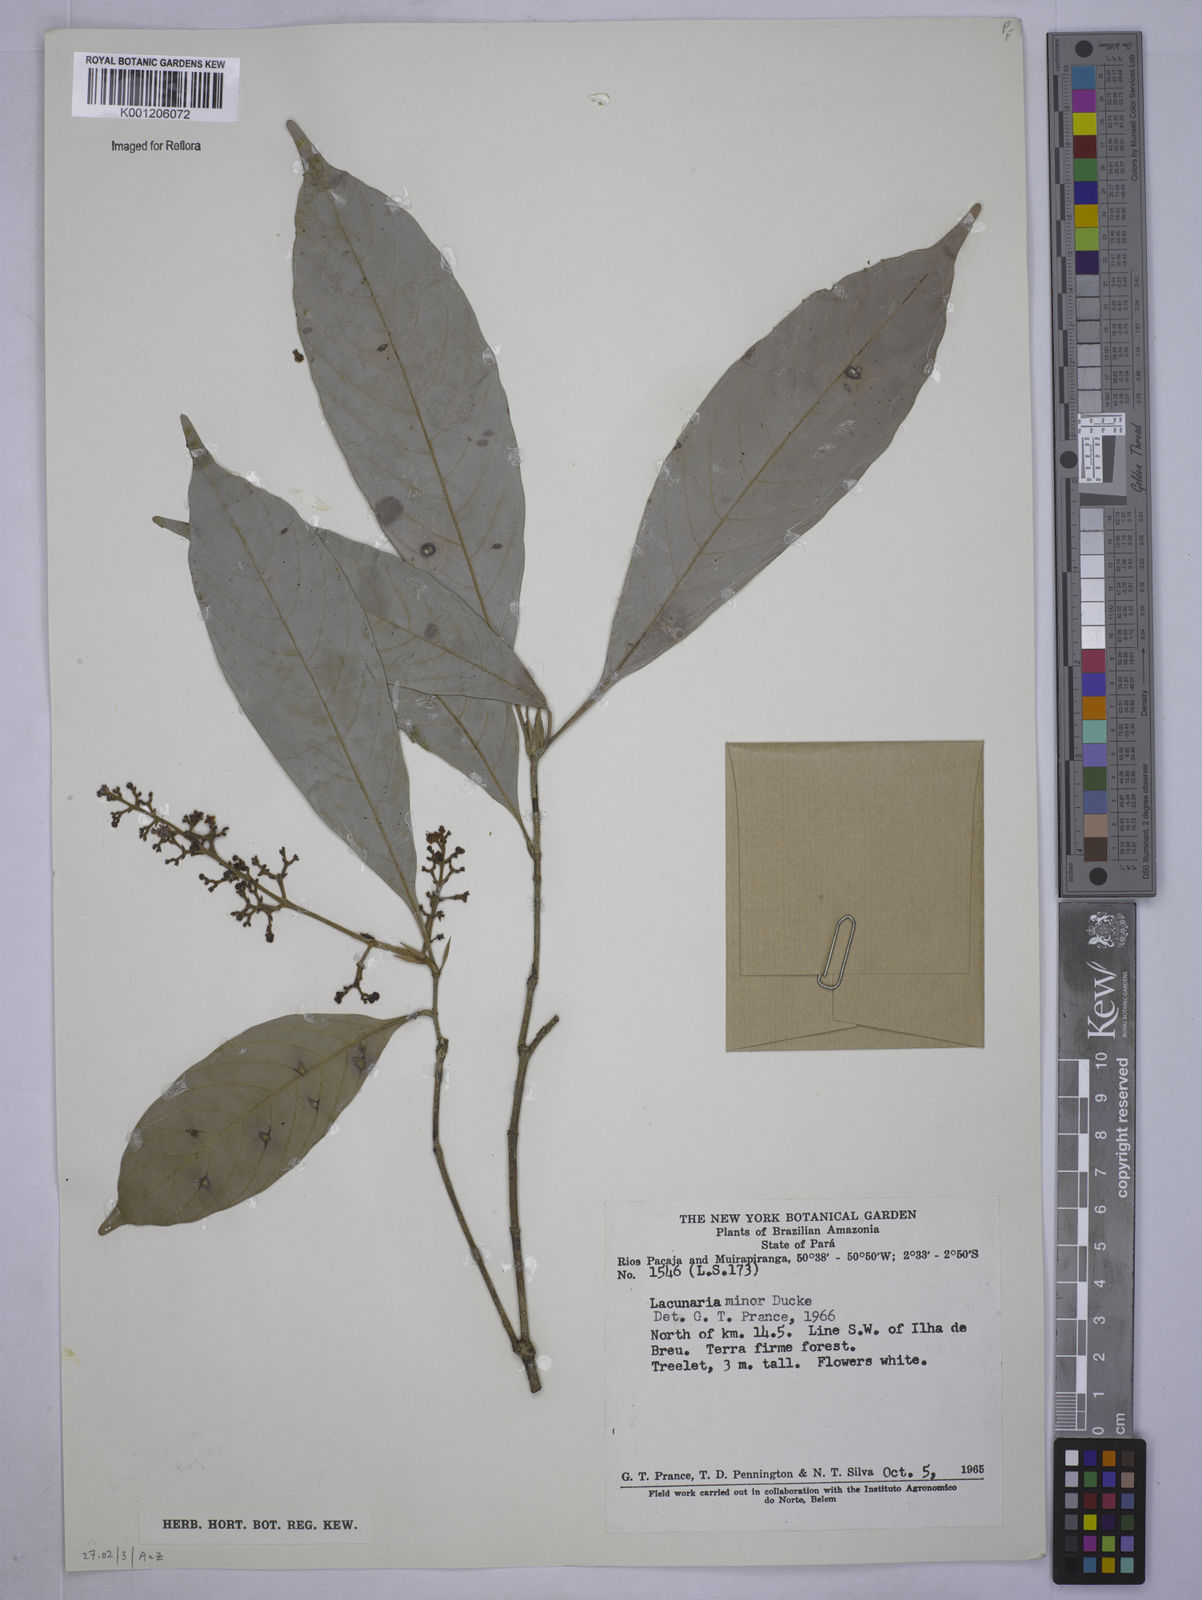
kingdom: Plantae
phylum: Tracheophyta
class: Magnoliopsida
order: Malpighiales
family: Quiinaceae
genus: Lacunaria
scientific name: Lacunaria macrostachya
